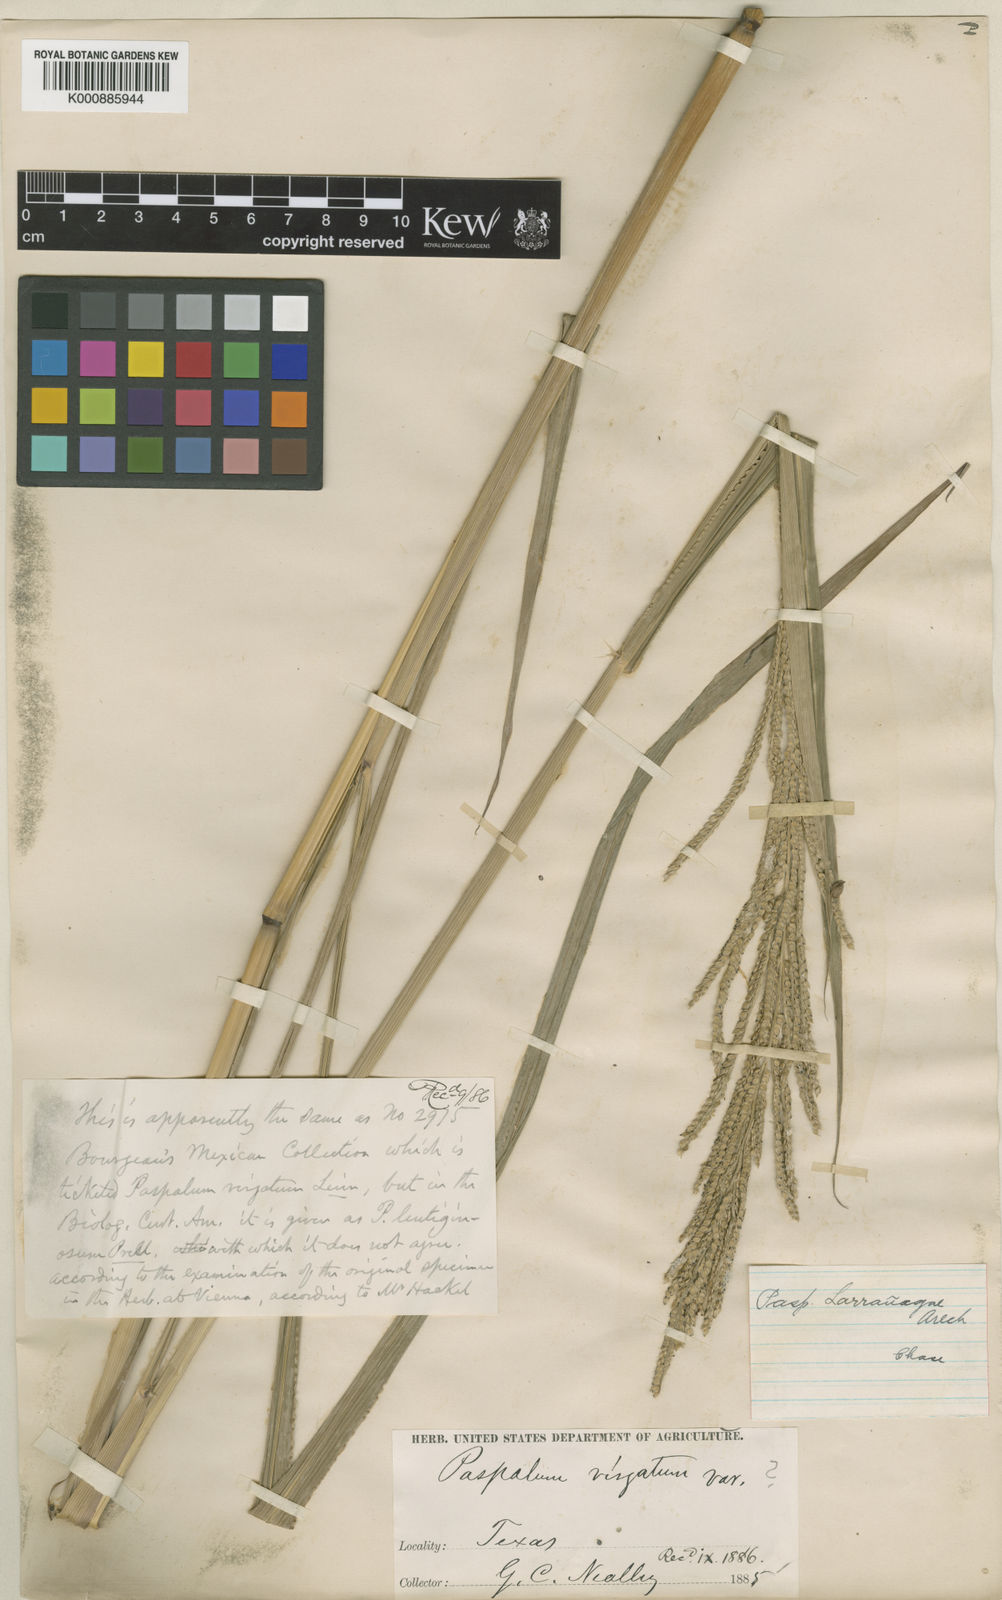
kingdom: Plantae
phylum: Tracheophyta
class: Liliopsida
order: Poales
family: Poaceae
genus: Paspalum
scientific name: Paspalum urvillei
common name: Vasey's grass
